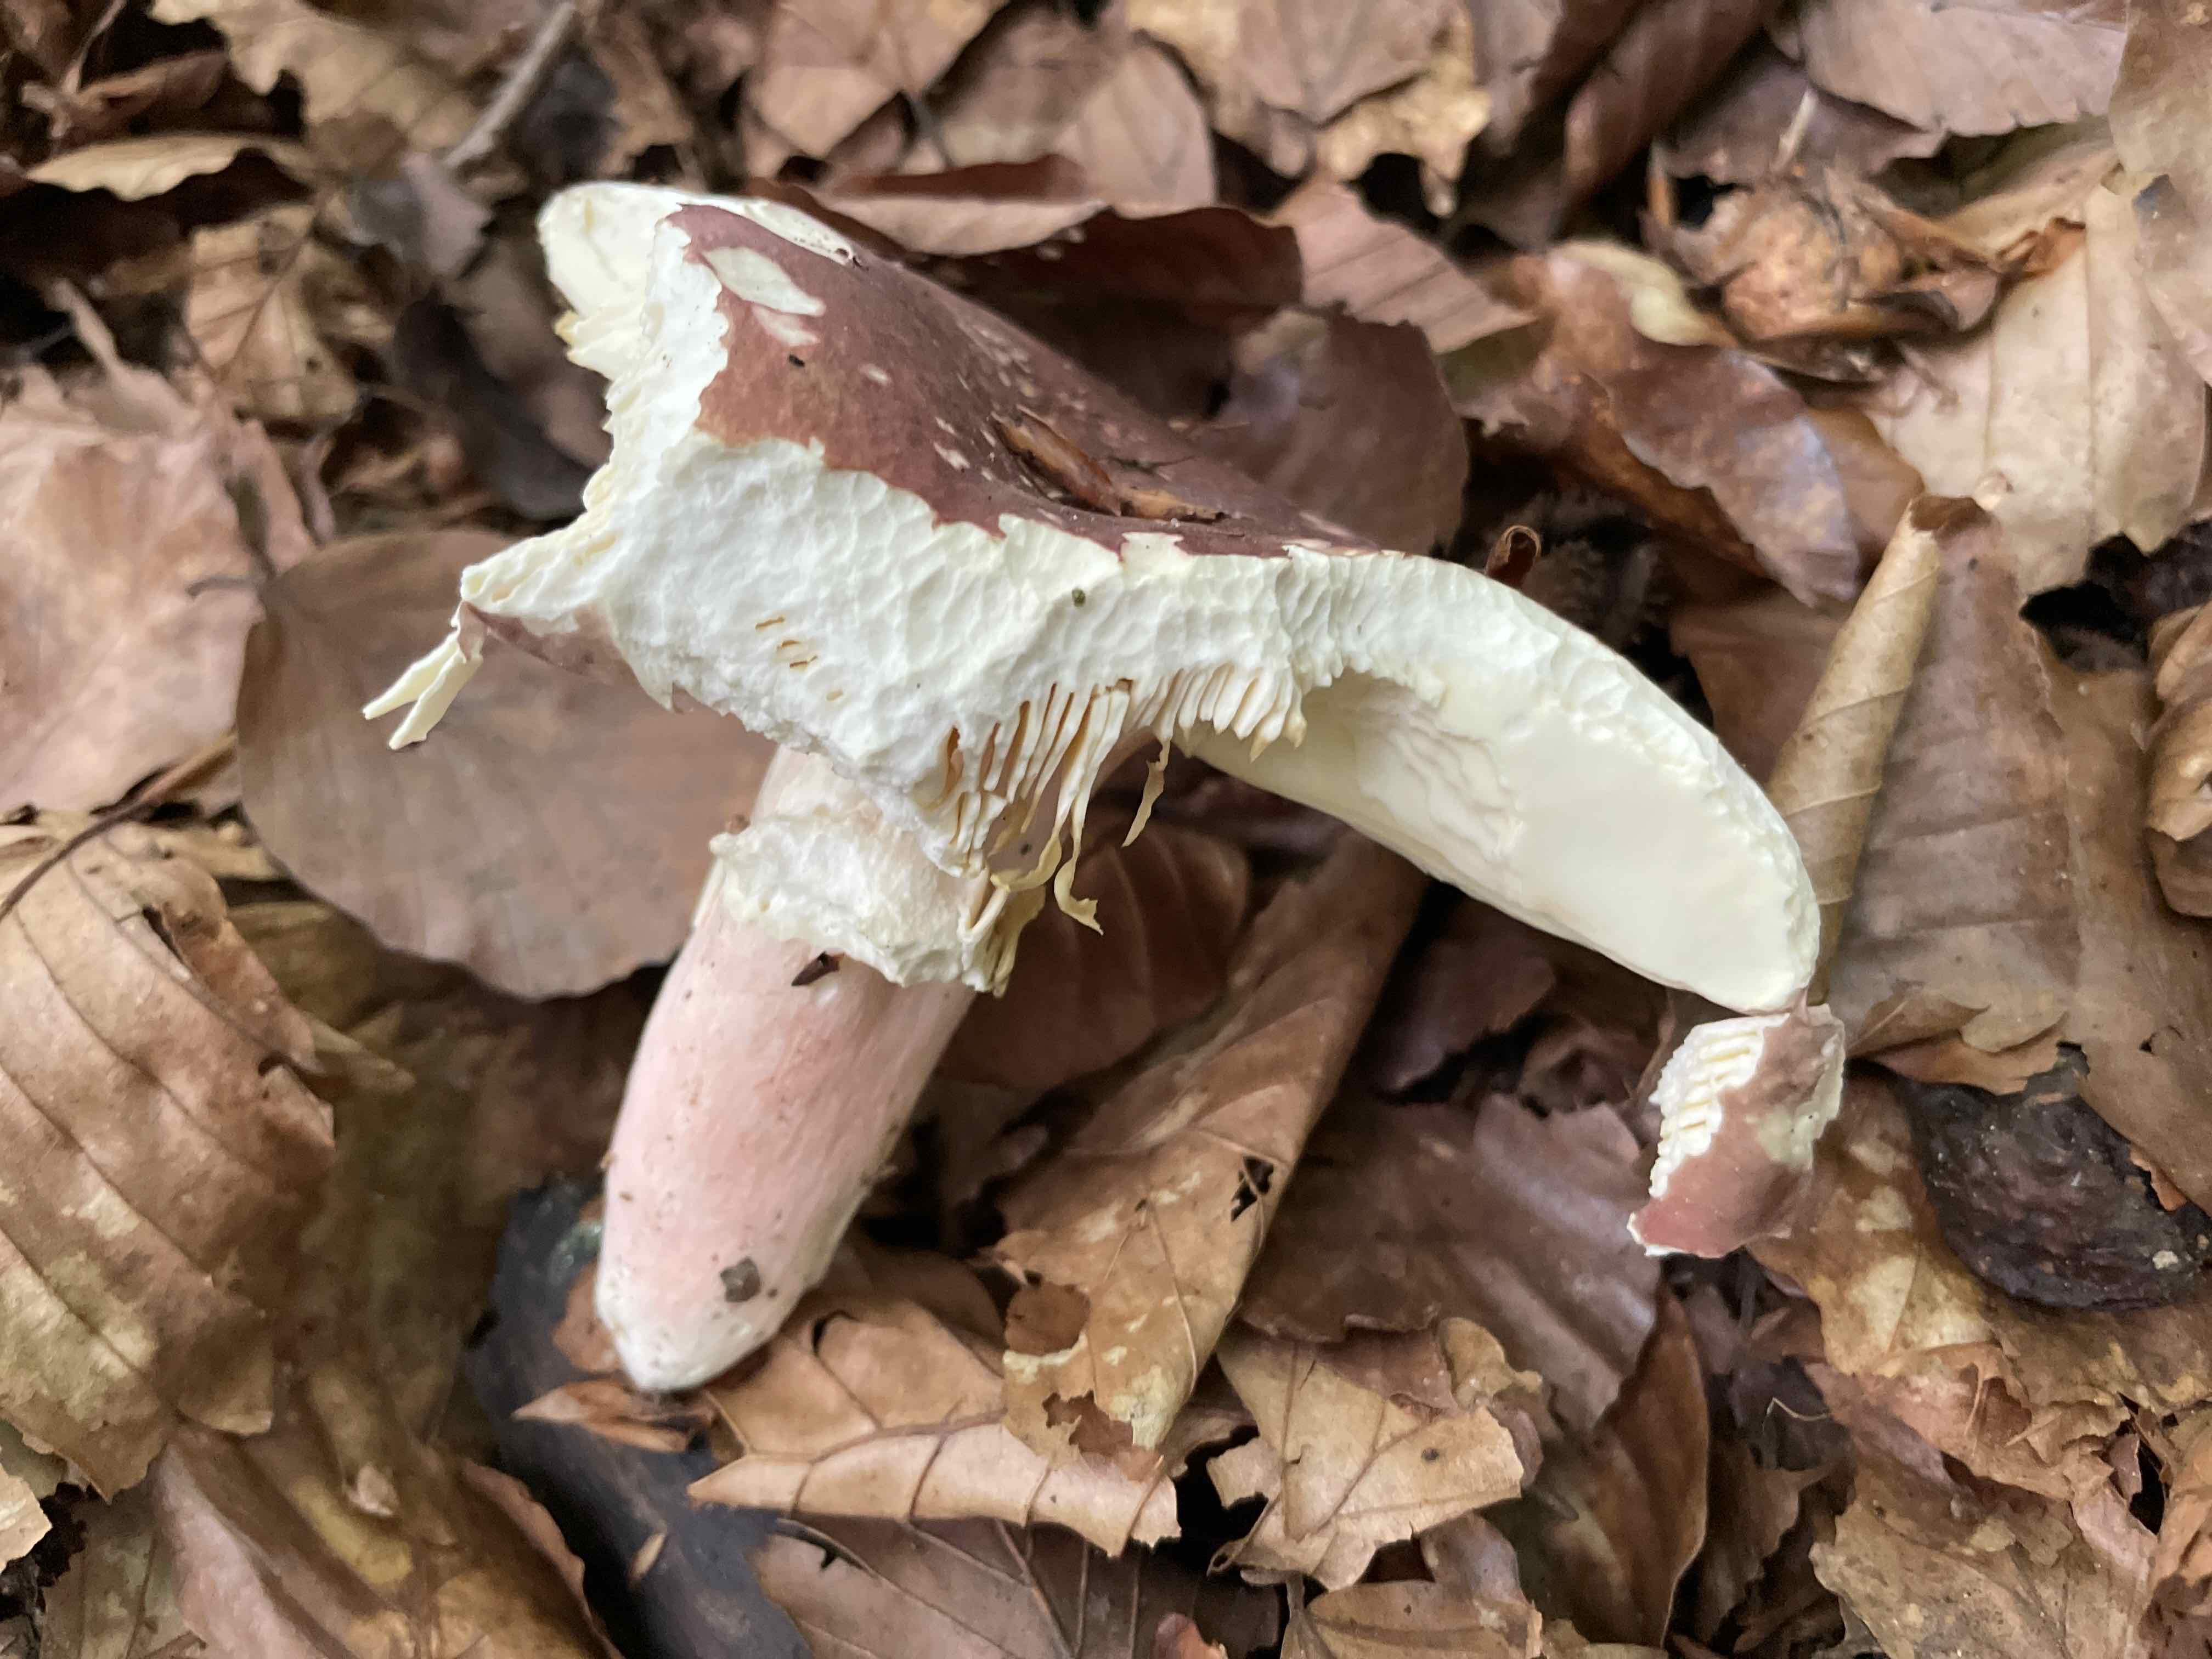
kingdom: Fungi
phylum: Basidiomycota
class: Agaricomycetes
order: Russulales
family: Russulaceae
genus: Russula
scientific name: Russula olivacea
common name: stor skørhat
